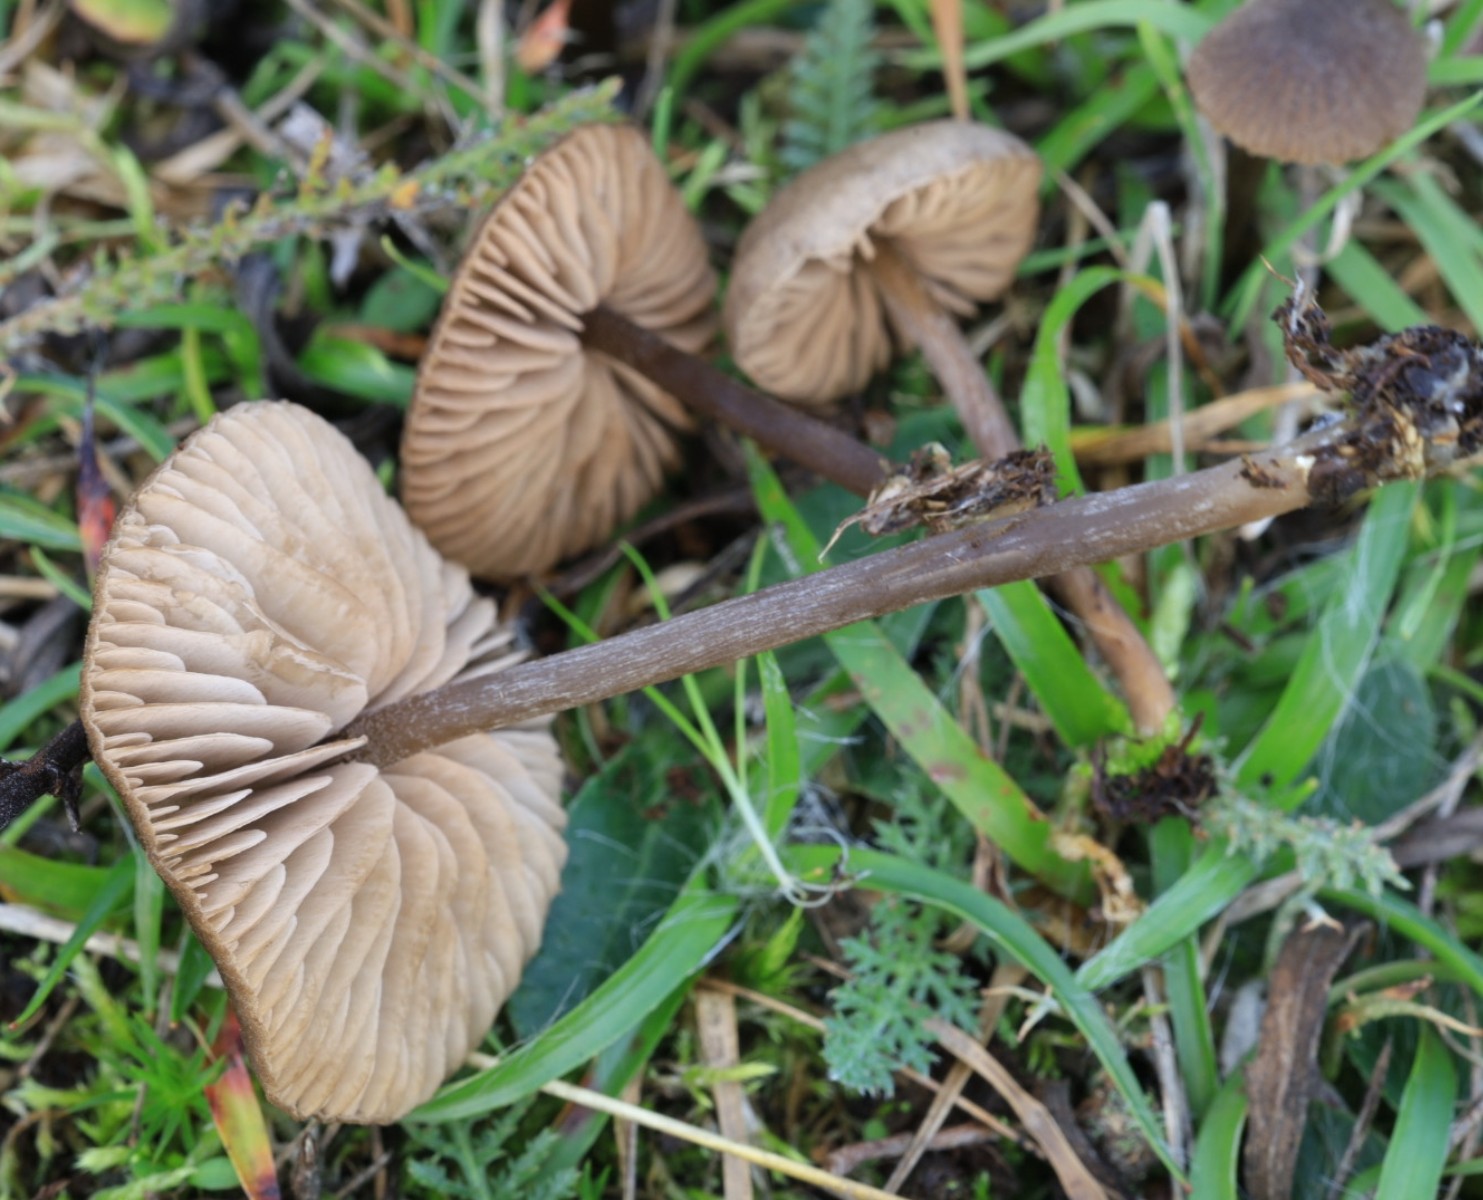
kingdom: Fungi
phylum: Basidiomycota
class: Agaricomycetes
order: Agaricales
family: Entolomataceae
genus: Entoloma
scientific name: Entoloma
